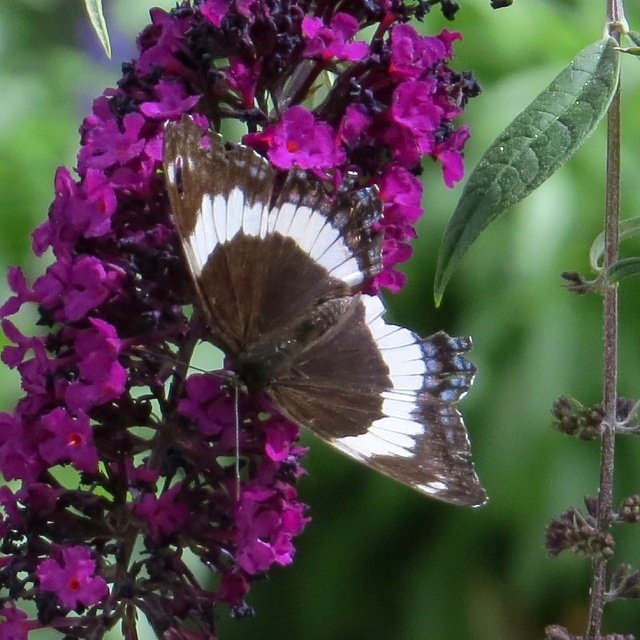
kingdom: Animalia
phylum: Arthropoda
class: Insecta
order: Lepidoptera
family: Nymphalidae
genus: Limenitis
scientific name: Limenitis arthemis
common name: Red-spotted Admiral
